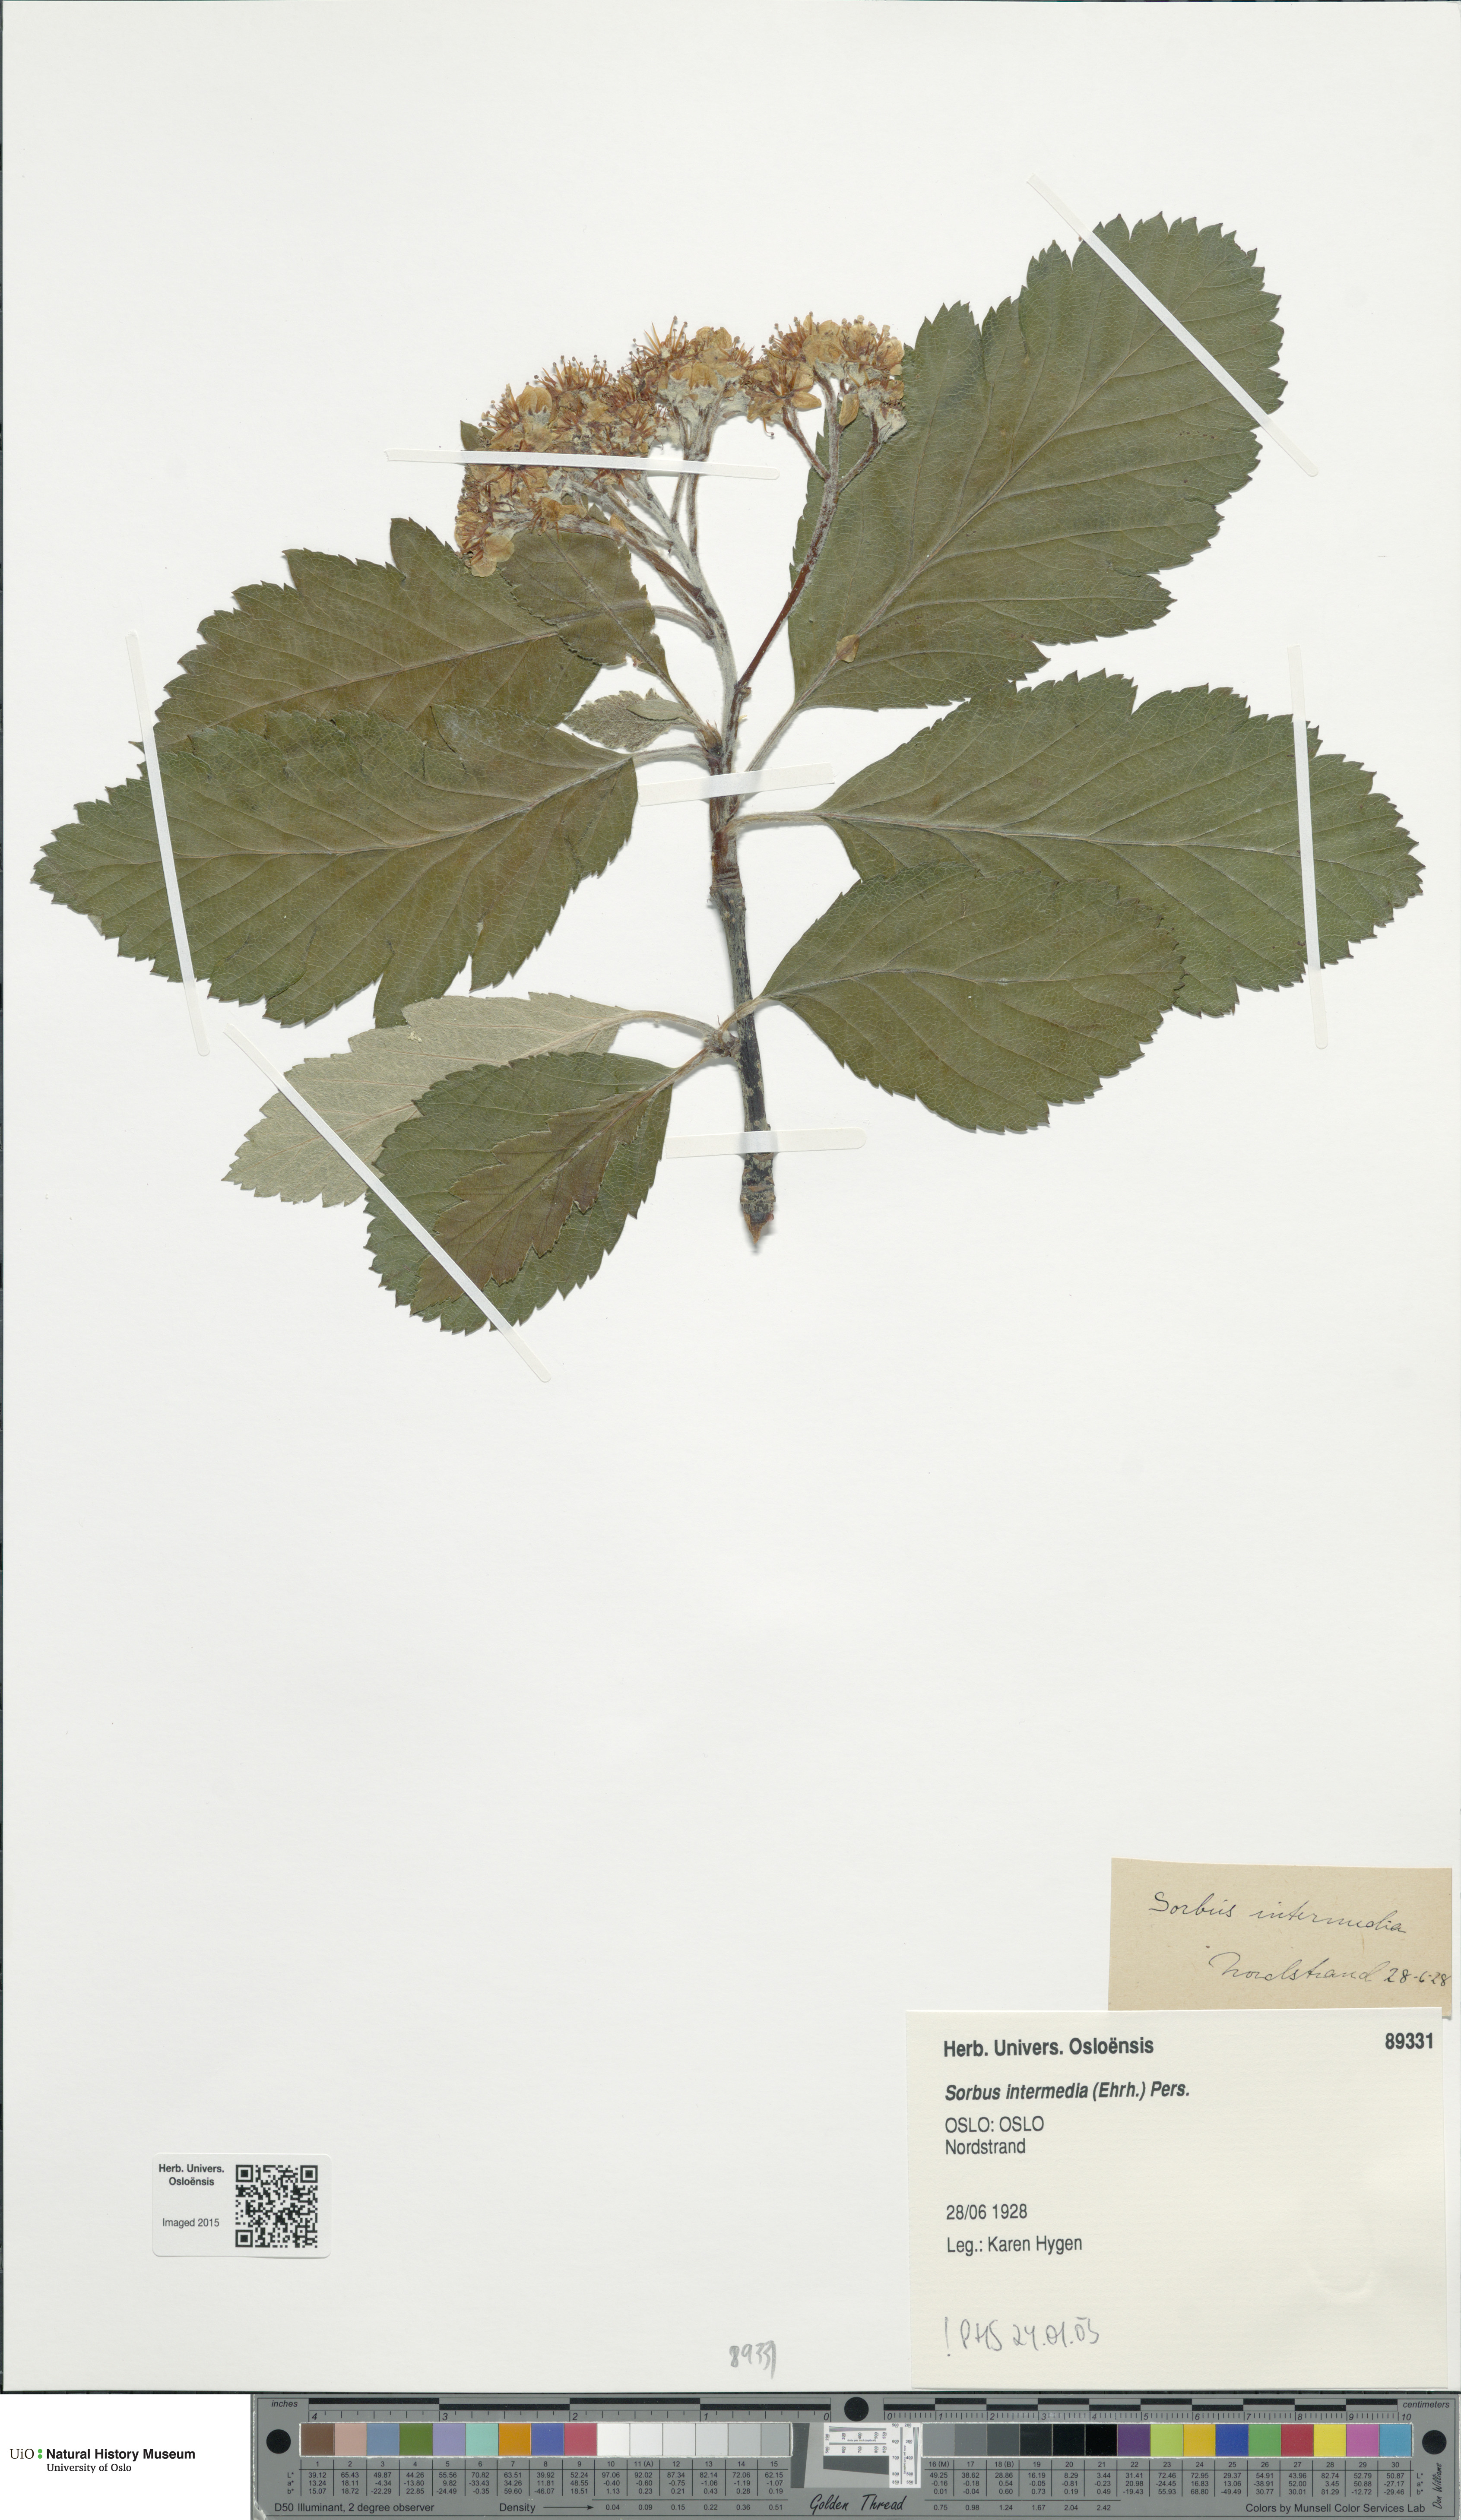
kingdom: Plantae
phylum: Tracheophyta
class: Magnoliopsida
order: Rosales
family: Rosaceae
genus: Scandosorbus
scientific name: Scandosorbus intermedia
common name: Swedish whitebeam
